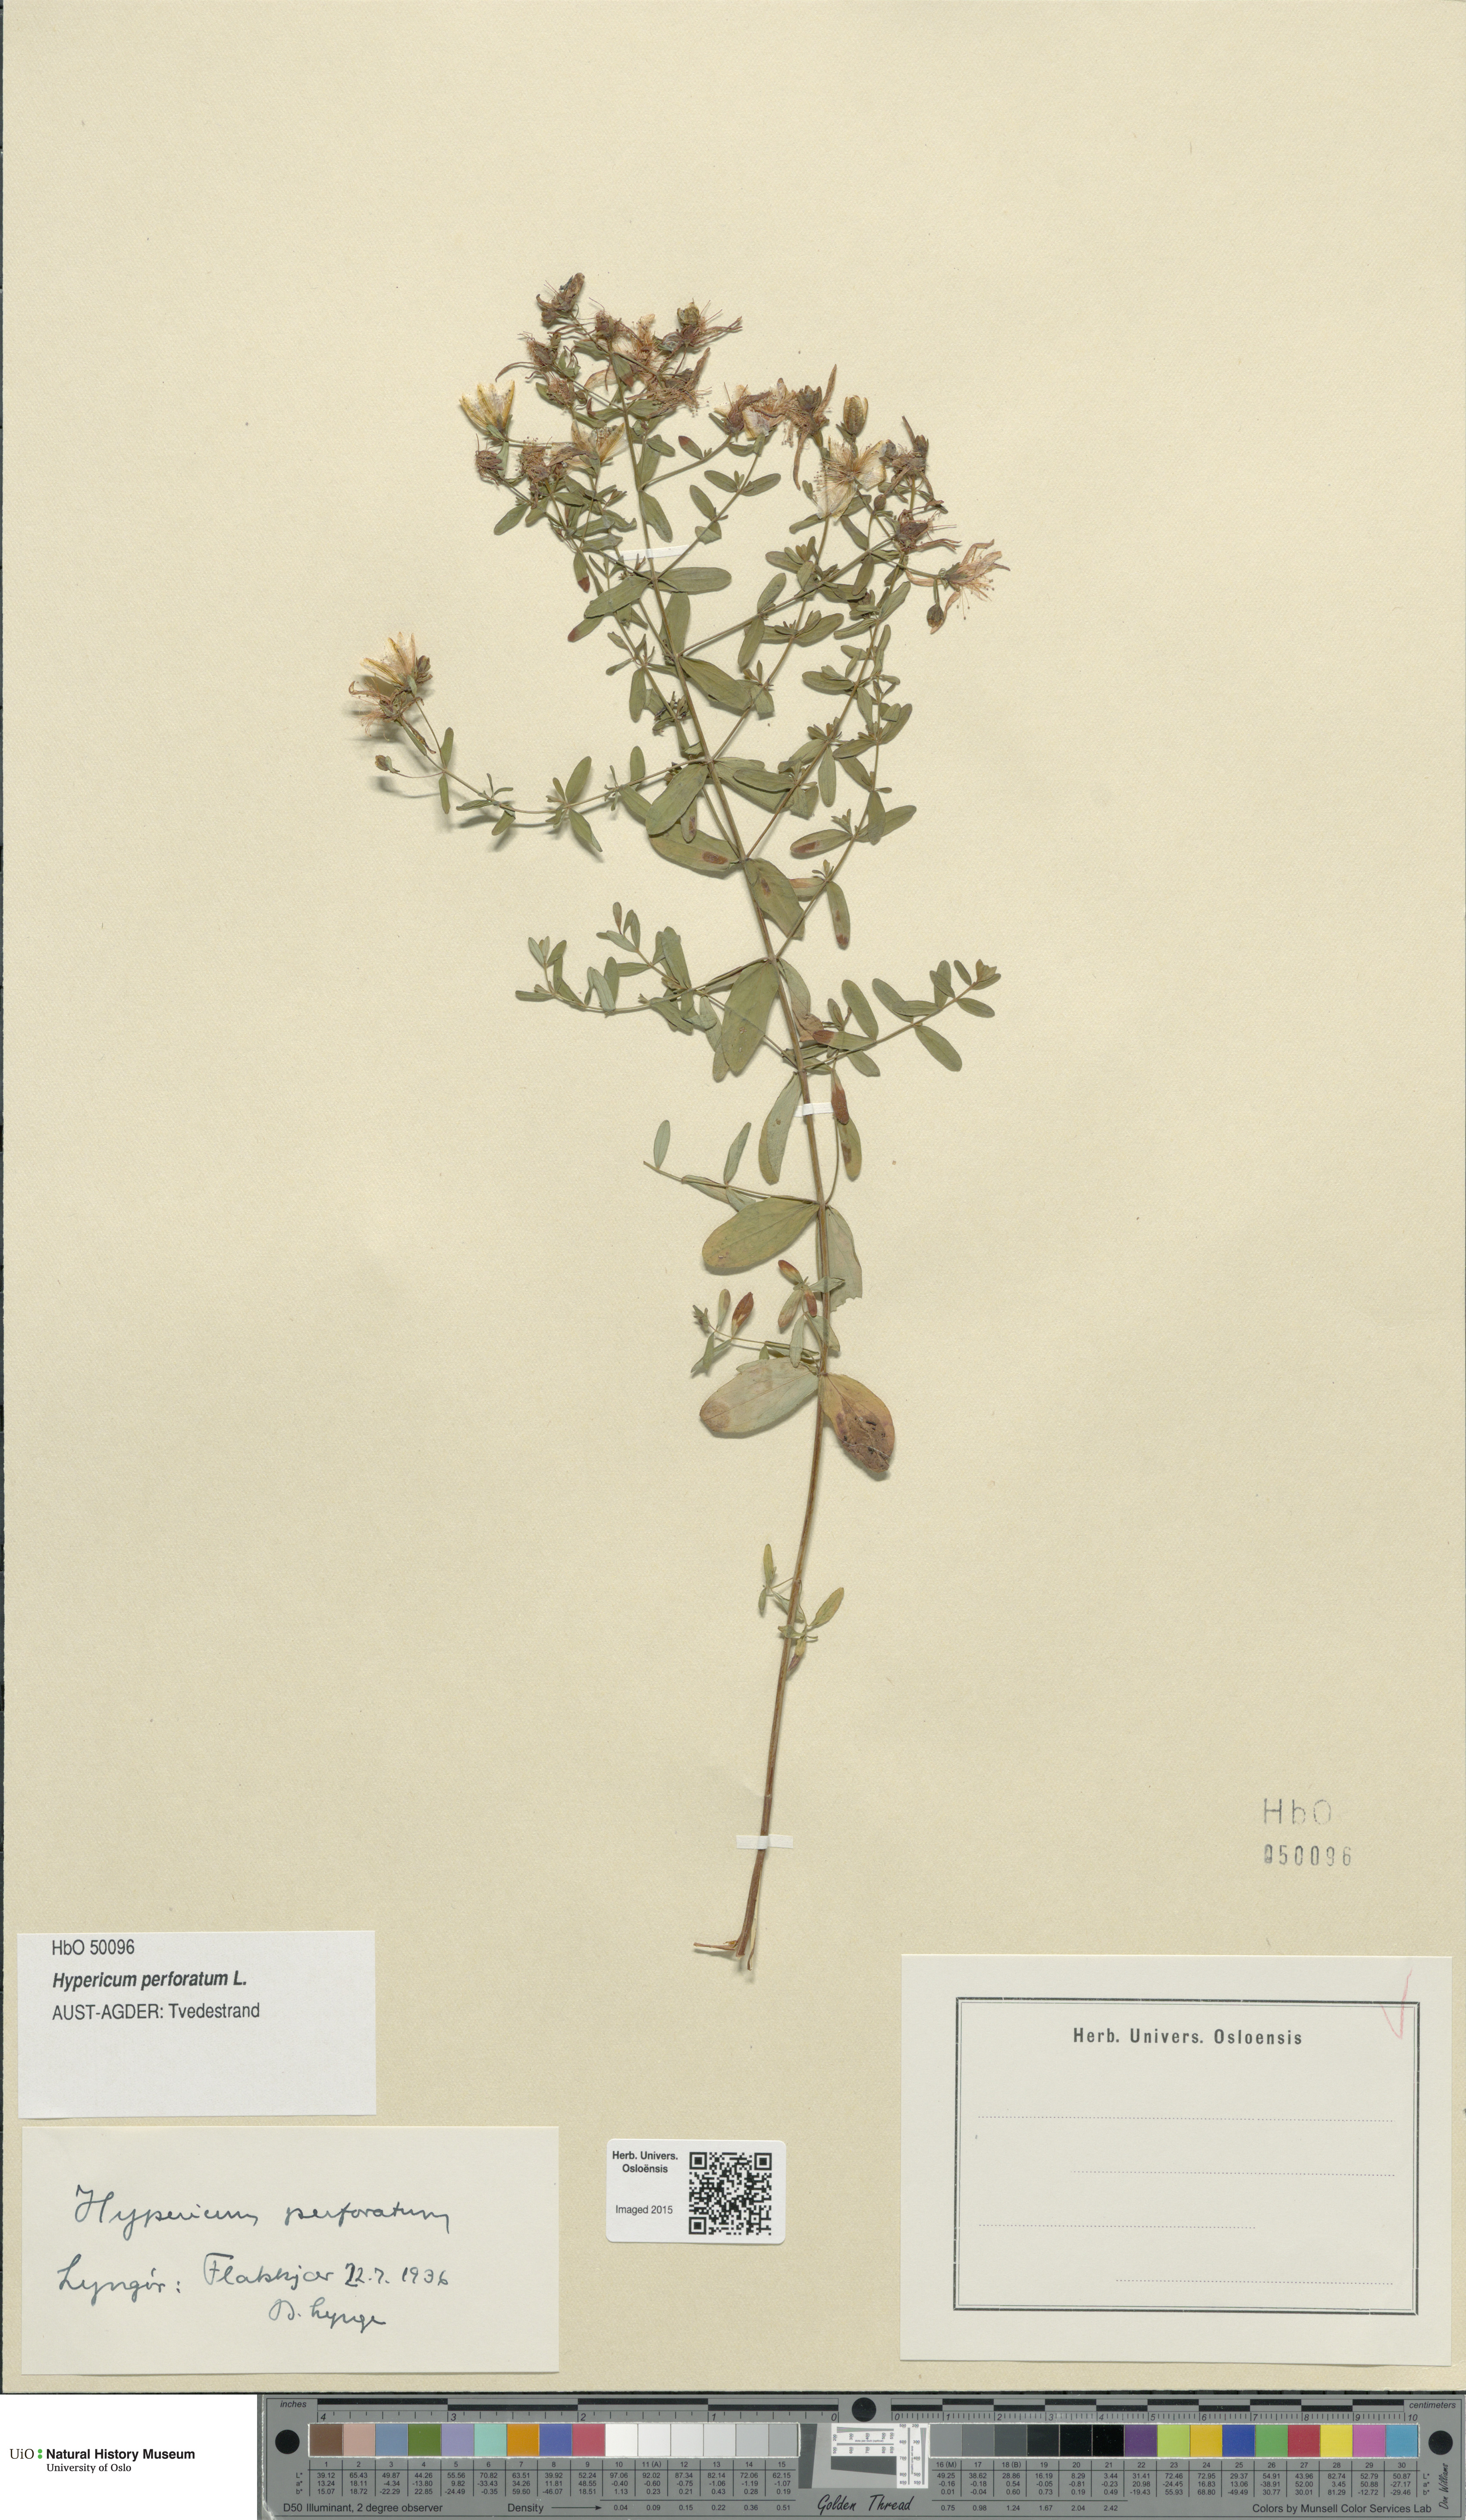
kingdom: Plantae
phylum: Tracheophyta
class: Magnoliopsida
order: Malpighiales
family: Hypericaceae
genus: Hypericum
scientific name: Hypericum perforatum
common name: Common st. johnswort
